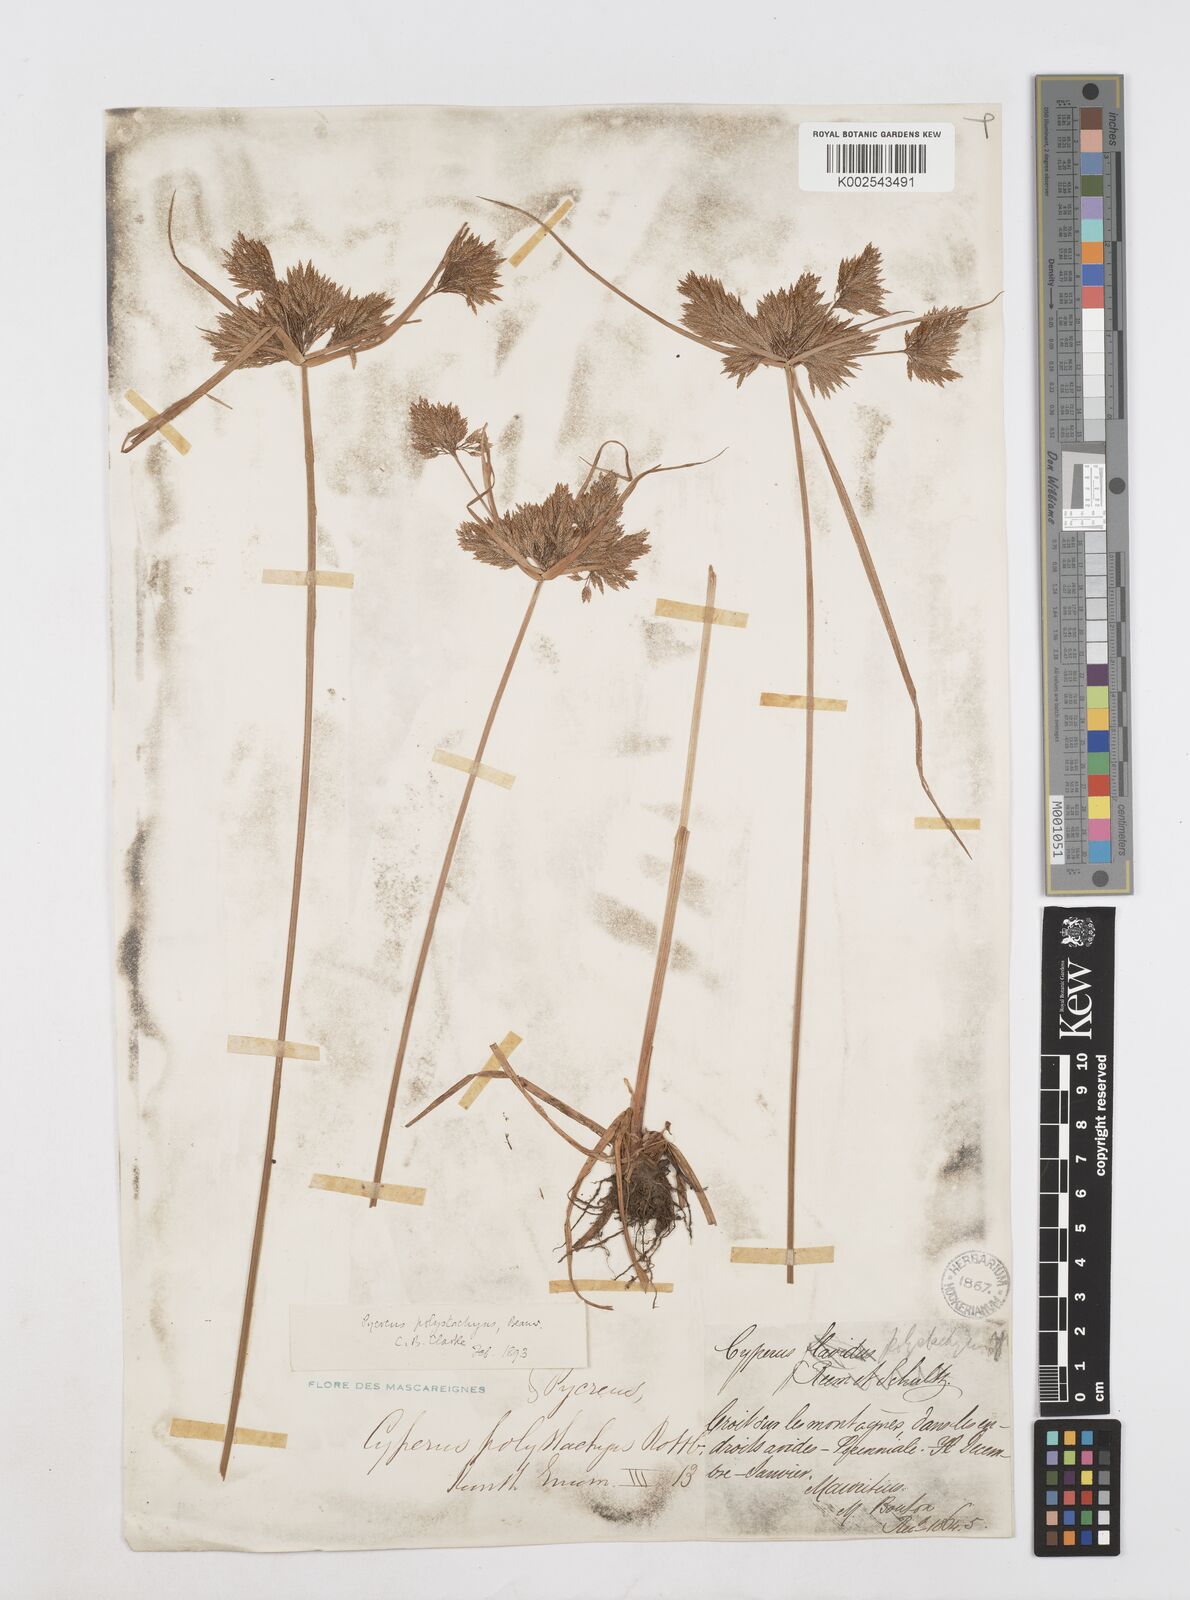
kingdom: Plantae
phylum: Tracheophyta
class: Liliopsida
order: Poales
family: Cyperaceae
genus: Cyperus
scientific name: Cyperus polystachyos
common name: Bunchy flat sedge
